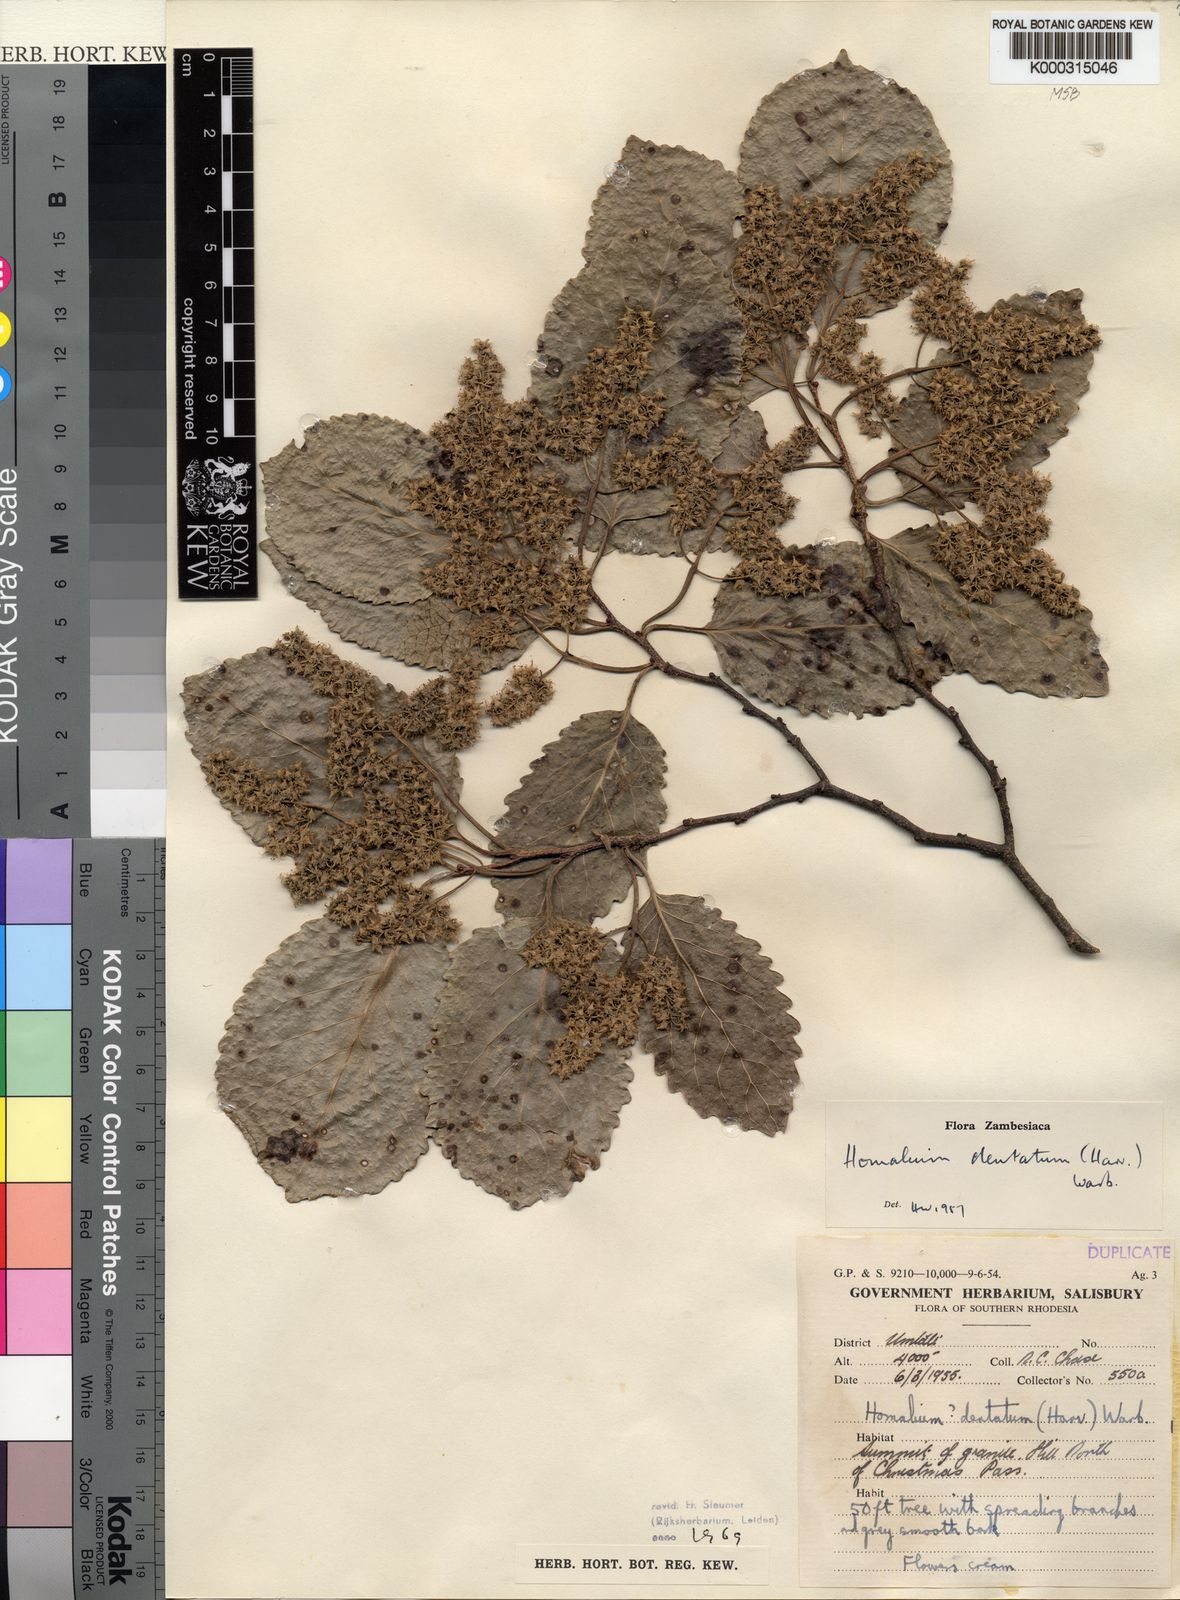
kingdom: Plantae
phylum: Tracheophyta
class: Magnoliopsida
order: Malpighiales
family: Salicaceae
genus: Homalium
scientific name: Homalium dentatum
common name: Brown ironwood
